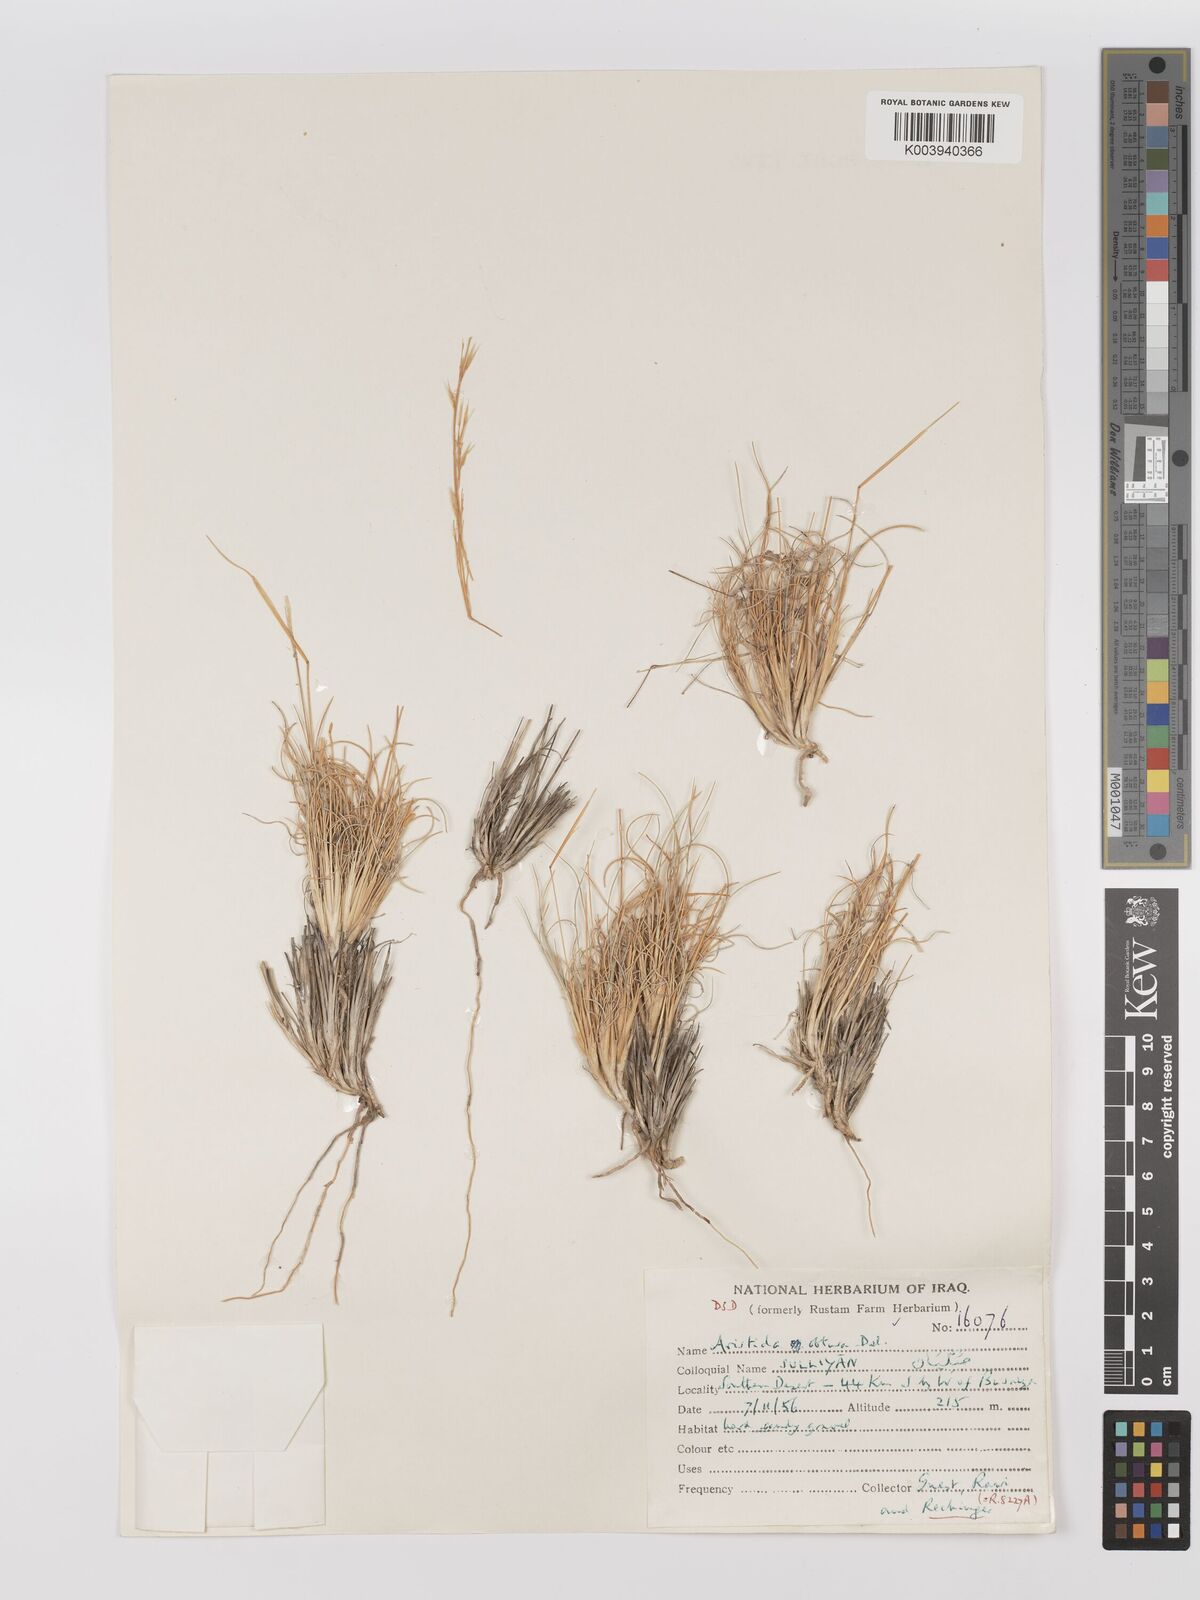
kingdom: Plantae
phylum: Tracheophyta
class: Liliopsida
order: Poales
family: Poaceae
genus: Stipagrostis
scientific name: Stipagrostis obtusa
